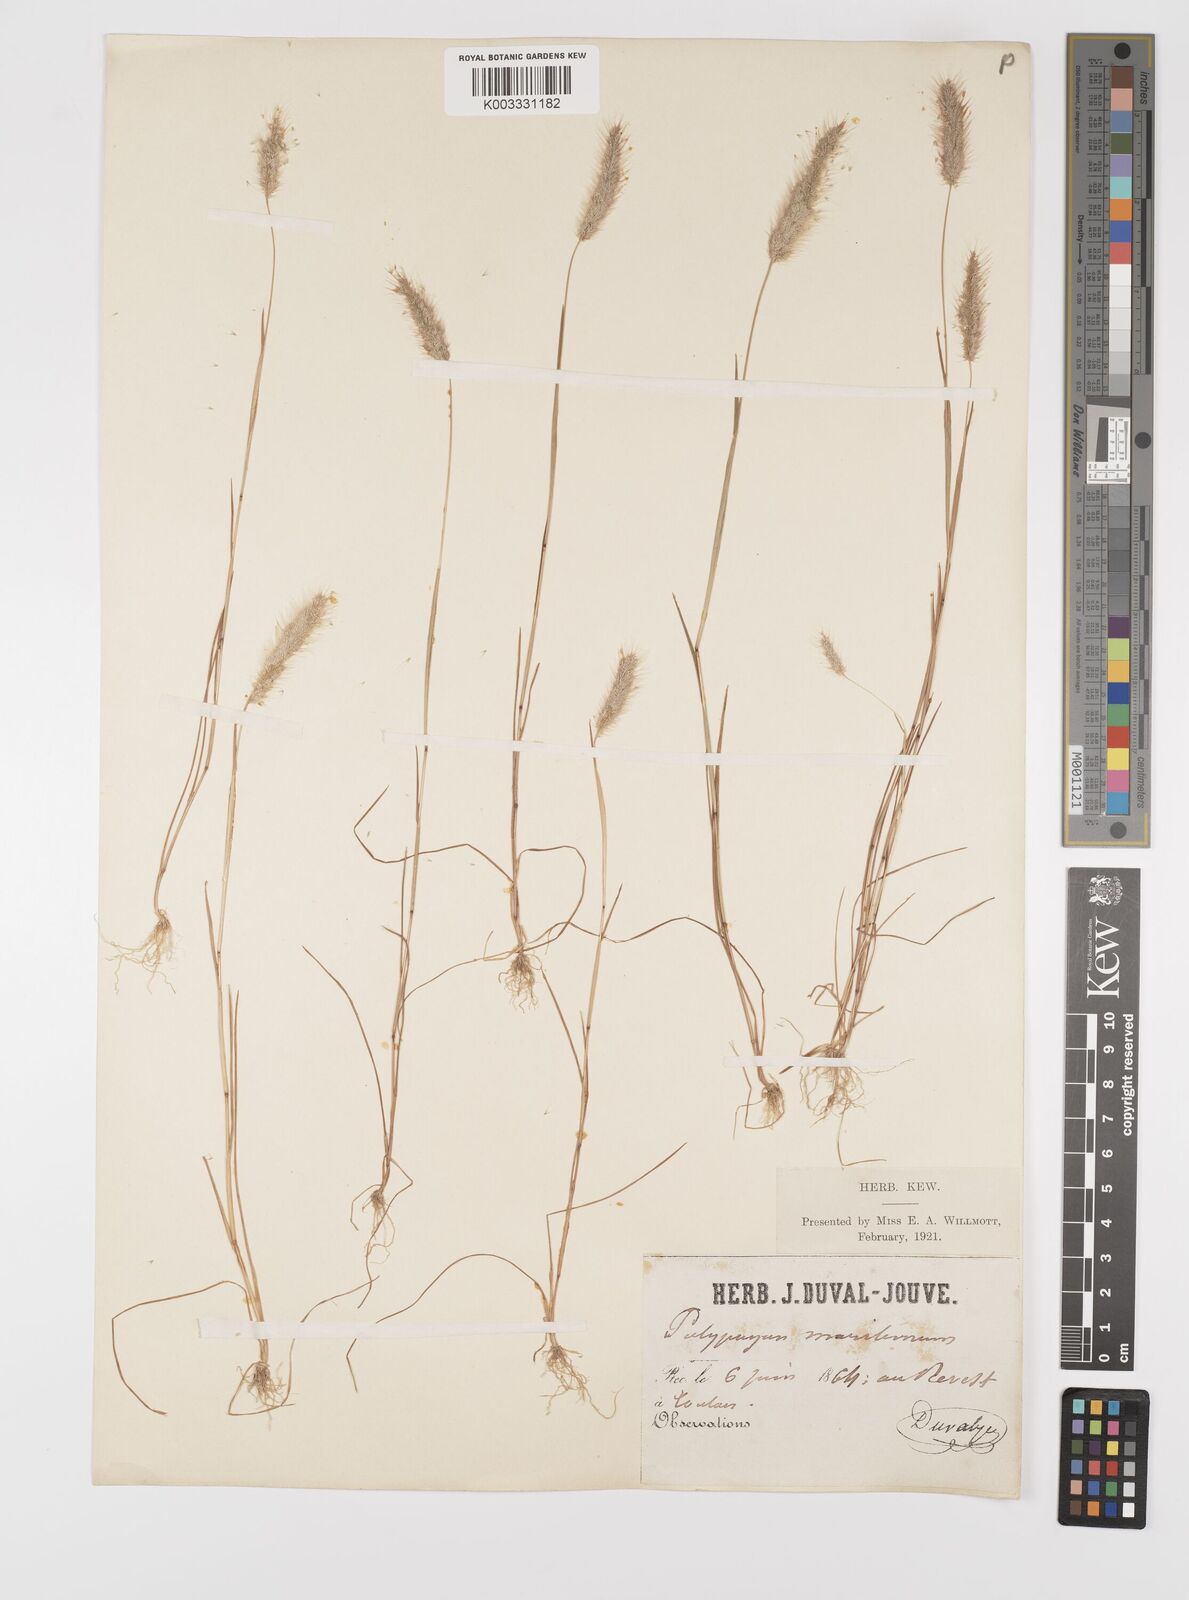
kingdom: Plantae
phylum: Tracheophyta
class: Liliopsida
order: Poales
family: Poaceae
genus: Polypogon
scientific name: Polypogon maritimus
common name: Mediterranean rabbitsfoot grass
